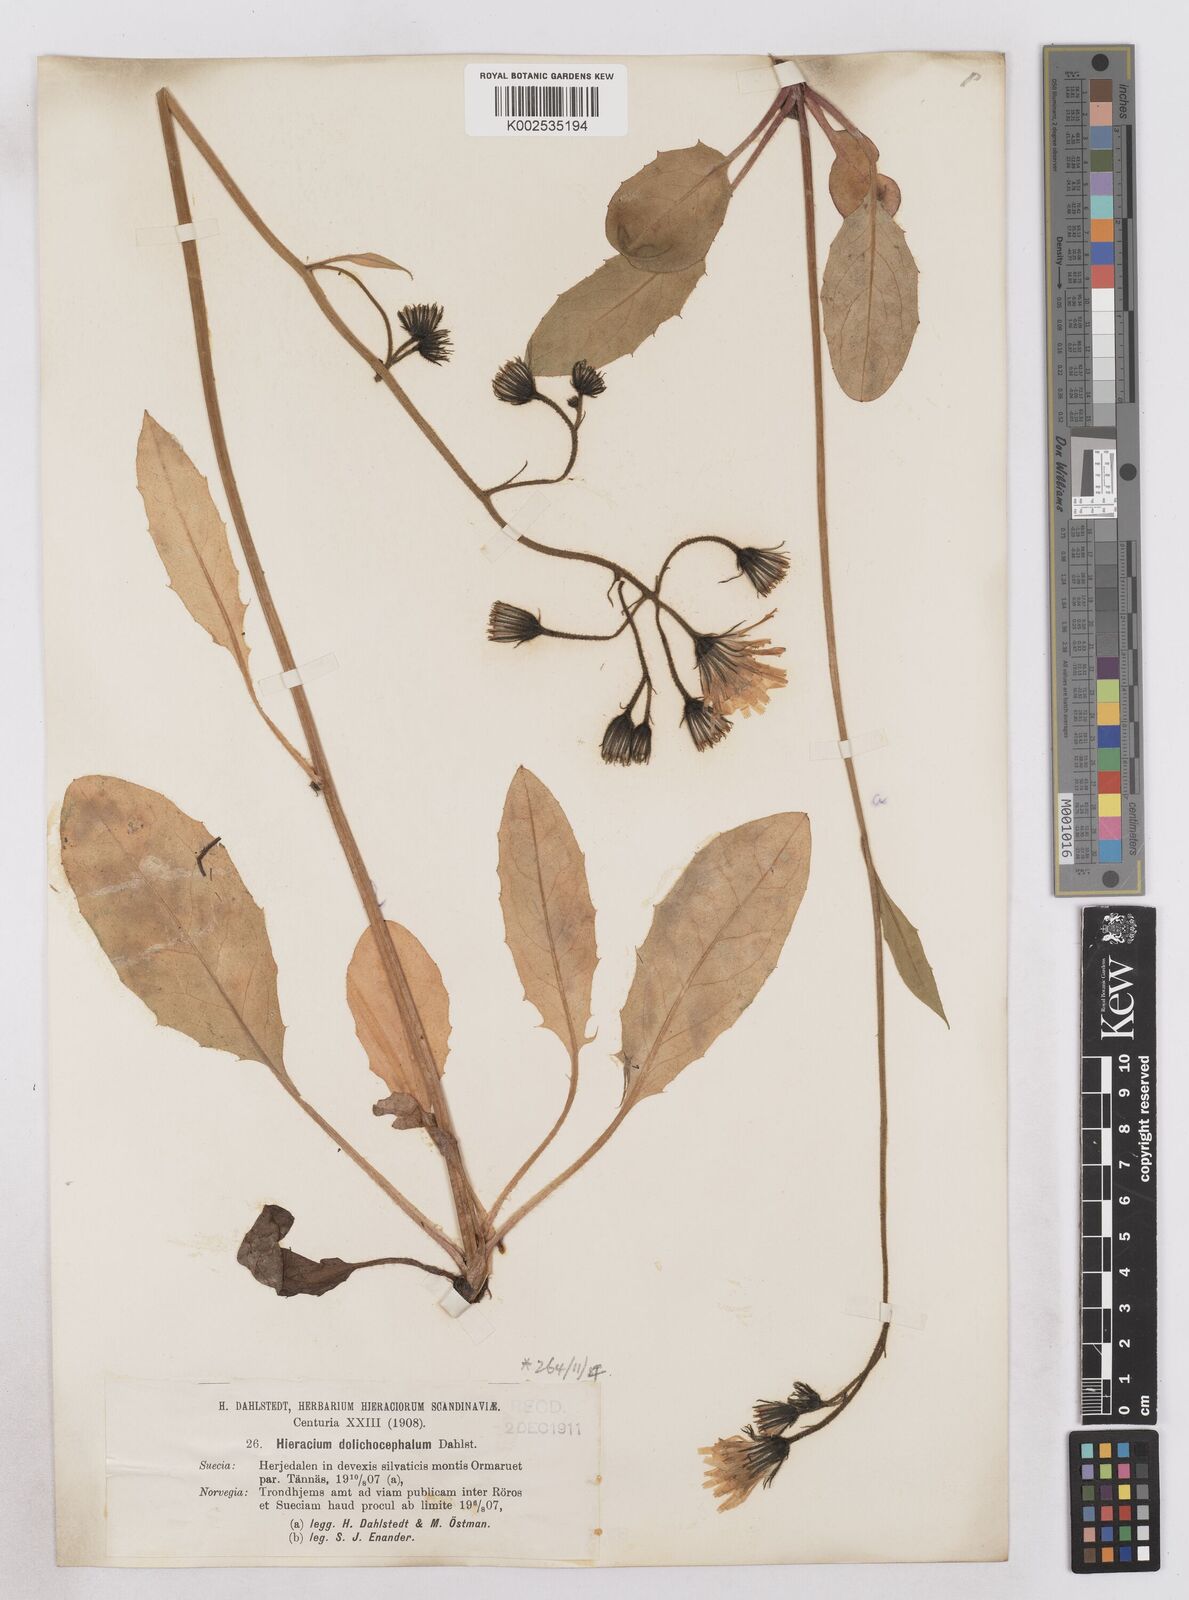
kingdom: Plantae
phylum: Tracheophyta
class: Magnoliopsida
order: Asterales
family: Asteraceae
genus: Hieracium
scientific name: Hieracium dolichosphaericum
